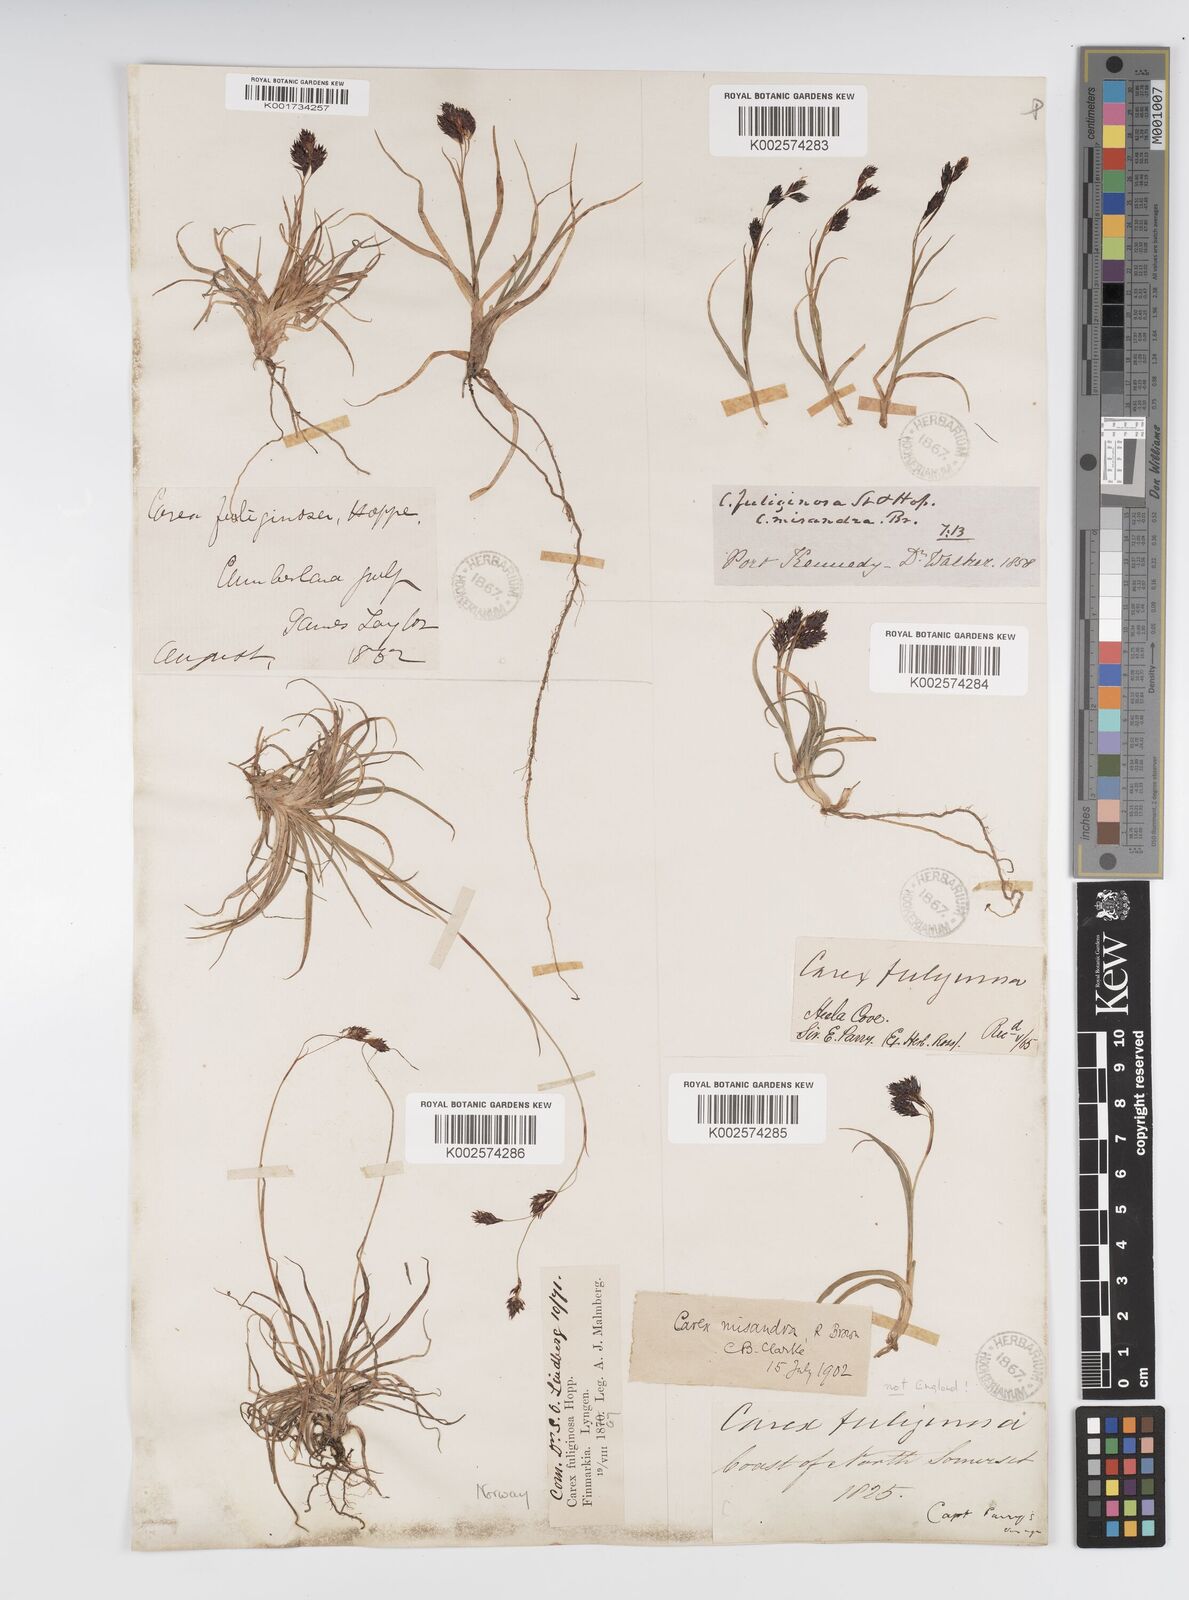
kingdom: Plantae
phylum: Tracheophyta
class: Liliopsida
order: Poales
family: Cyperaceae
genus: Carex
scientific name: Carex fuliginosa
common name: Few-flowered sedge
